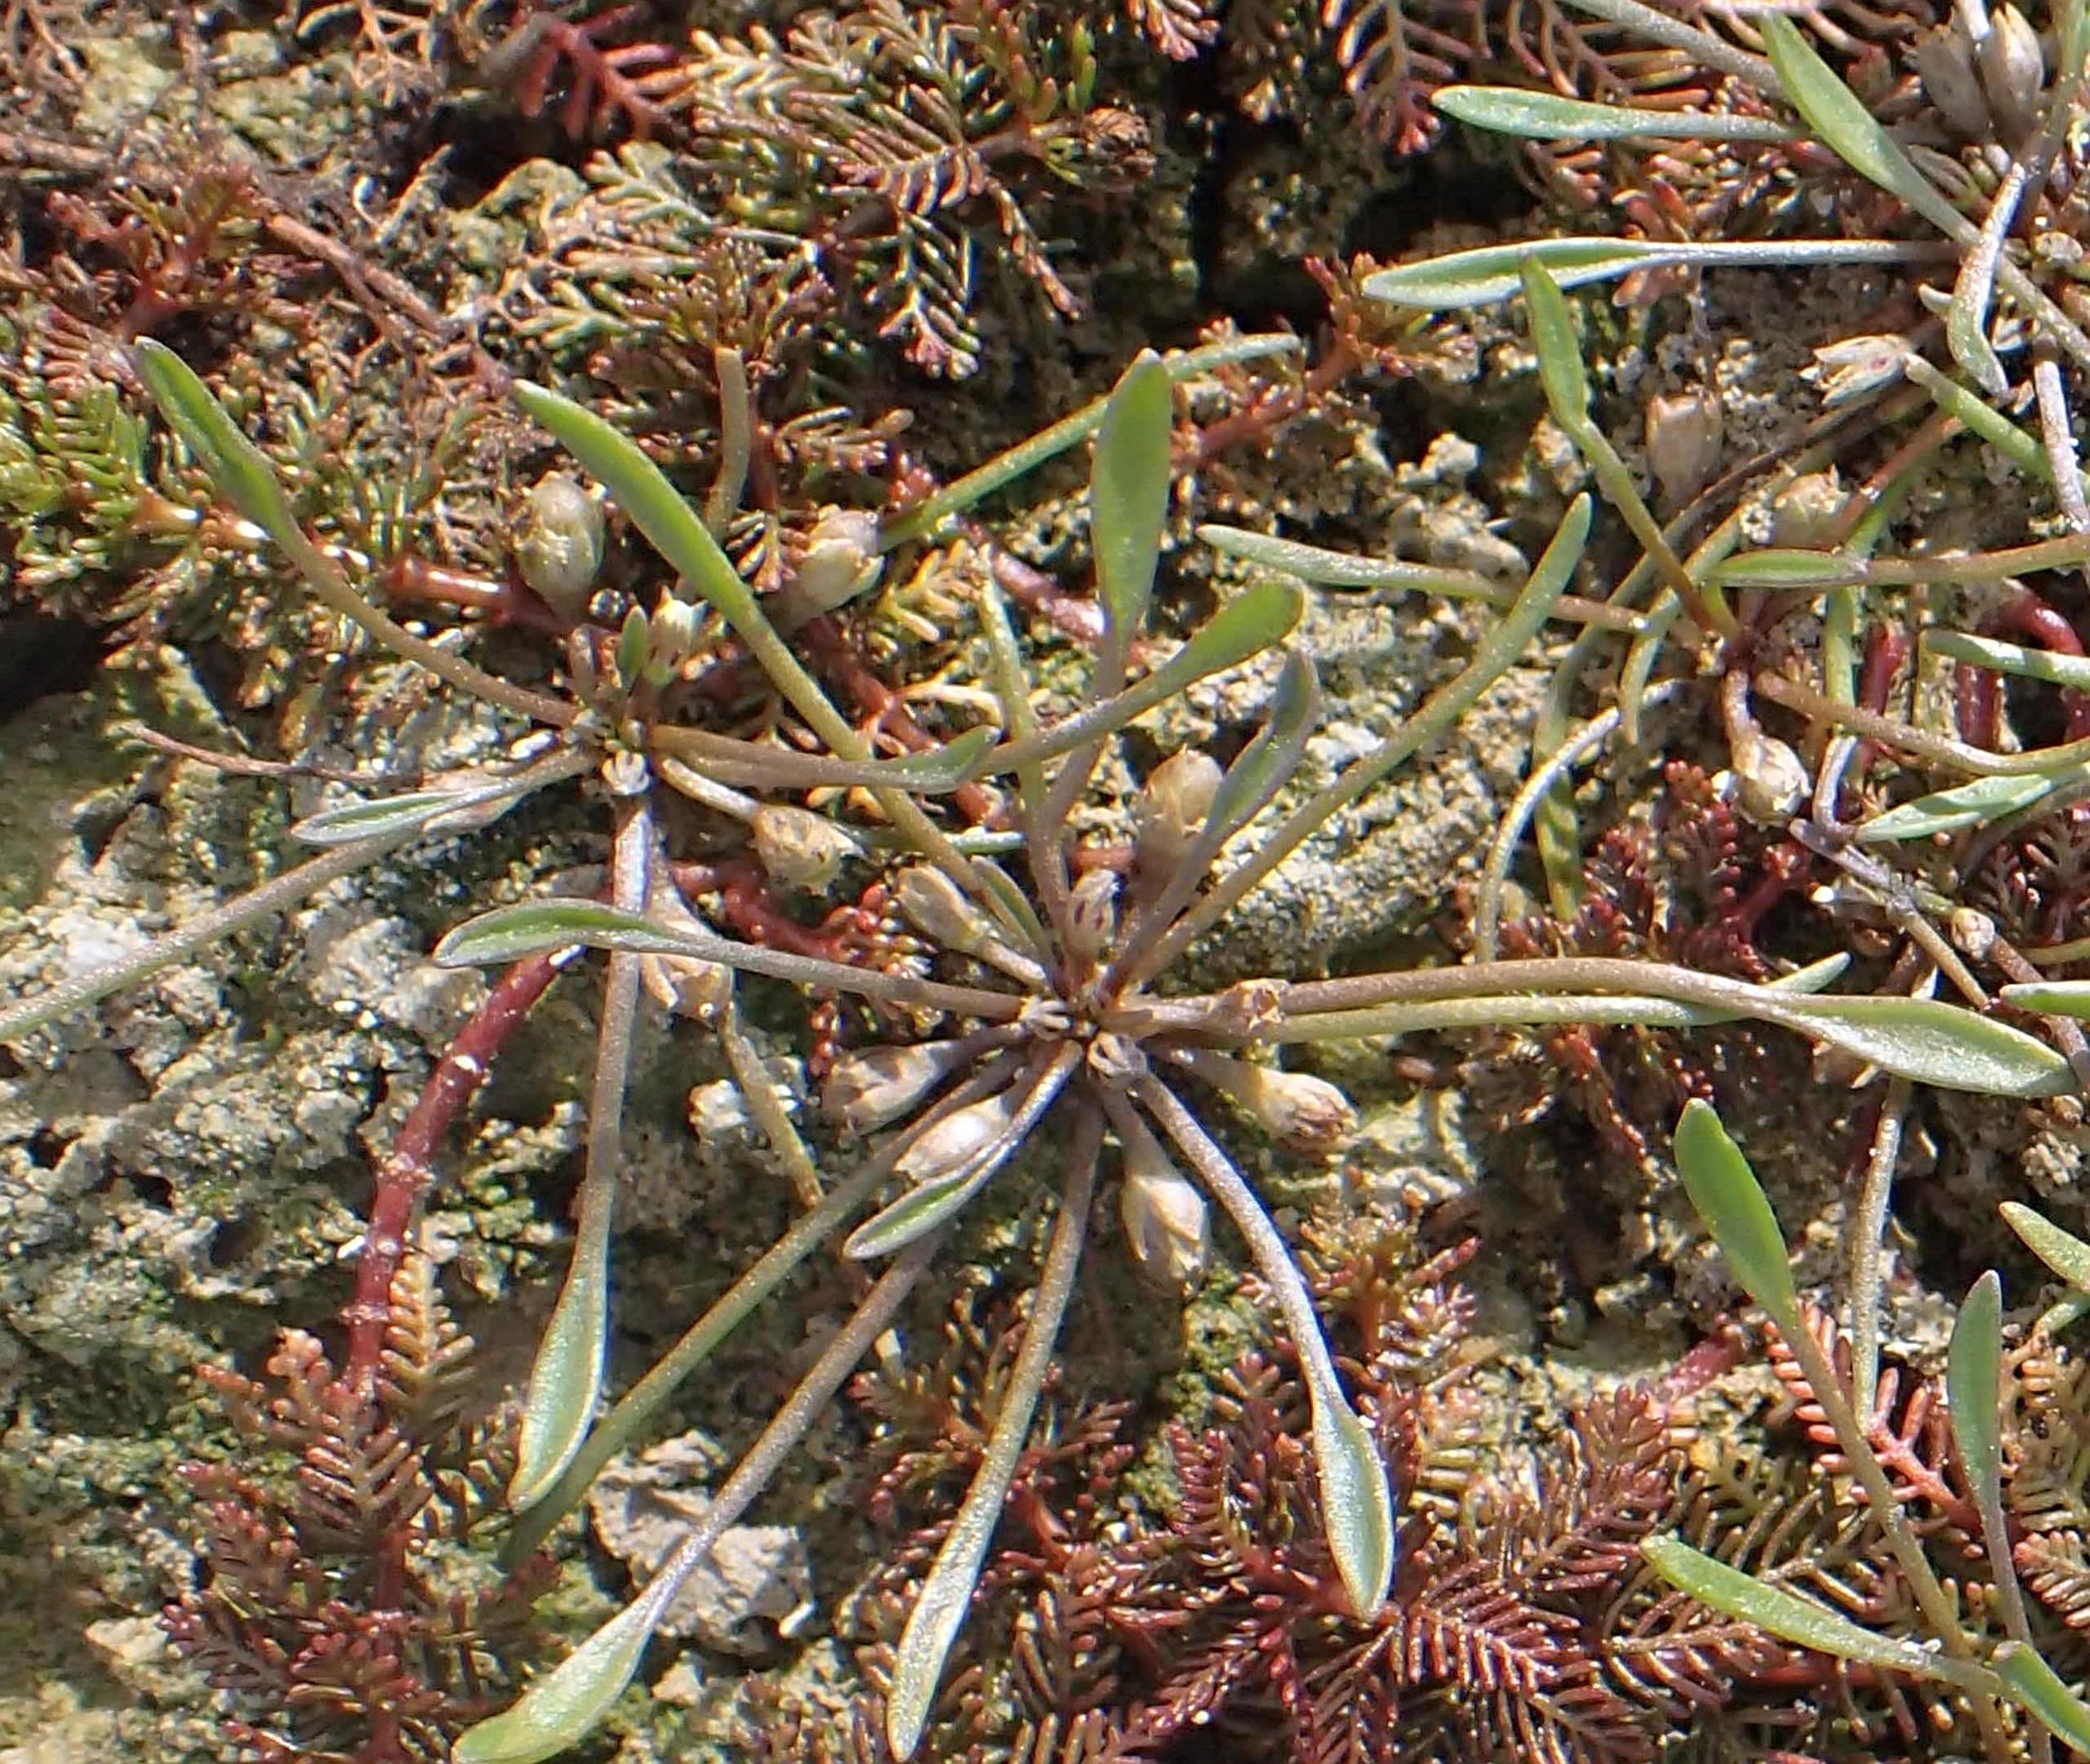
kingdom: Plantae
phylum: Tracheophyta
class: Magnoliopsida
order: Lamiales
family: Scrophulariaceae
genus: Limosella
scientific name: Limosella aquatica
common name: Dyndurt
